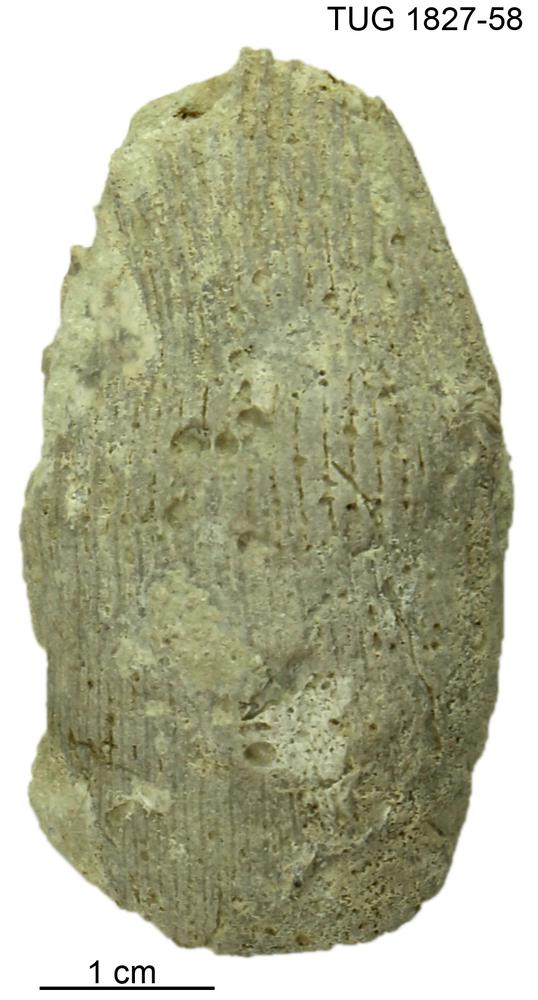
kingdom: Animalia
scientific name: Animalia
